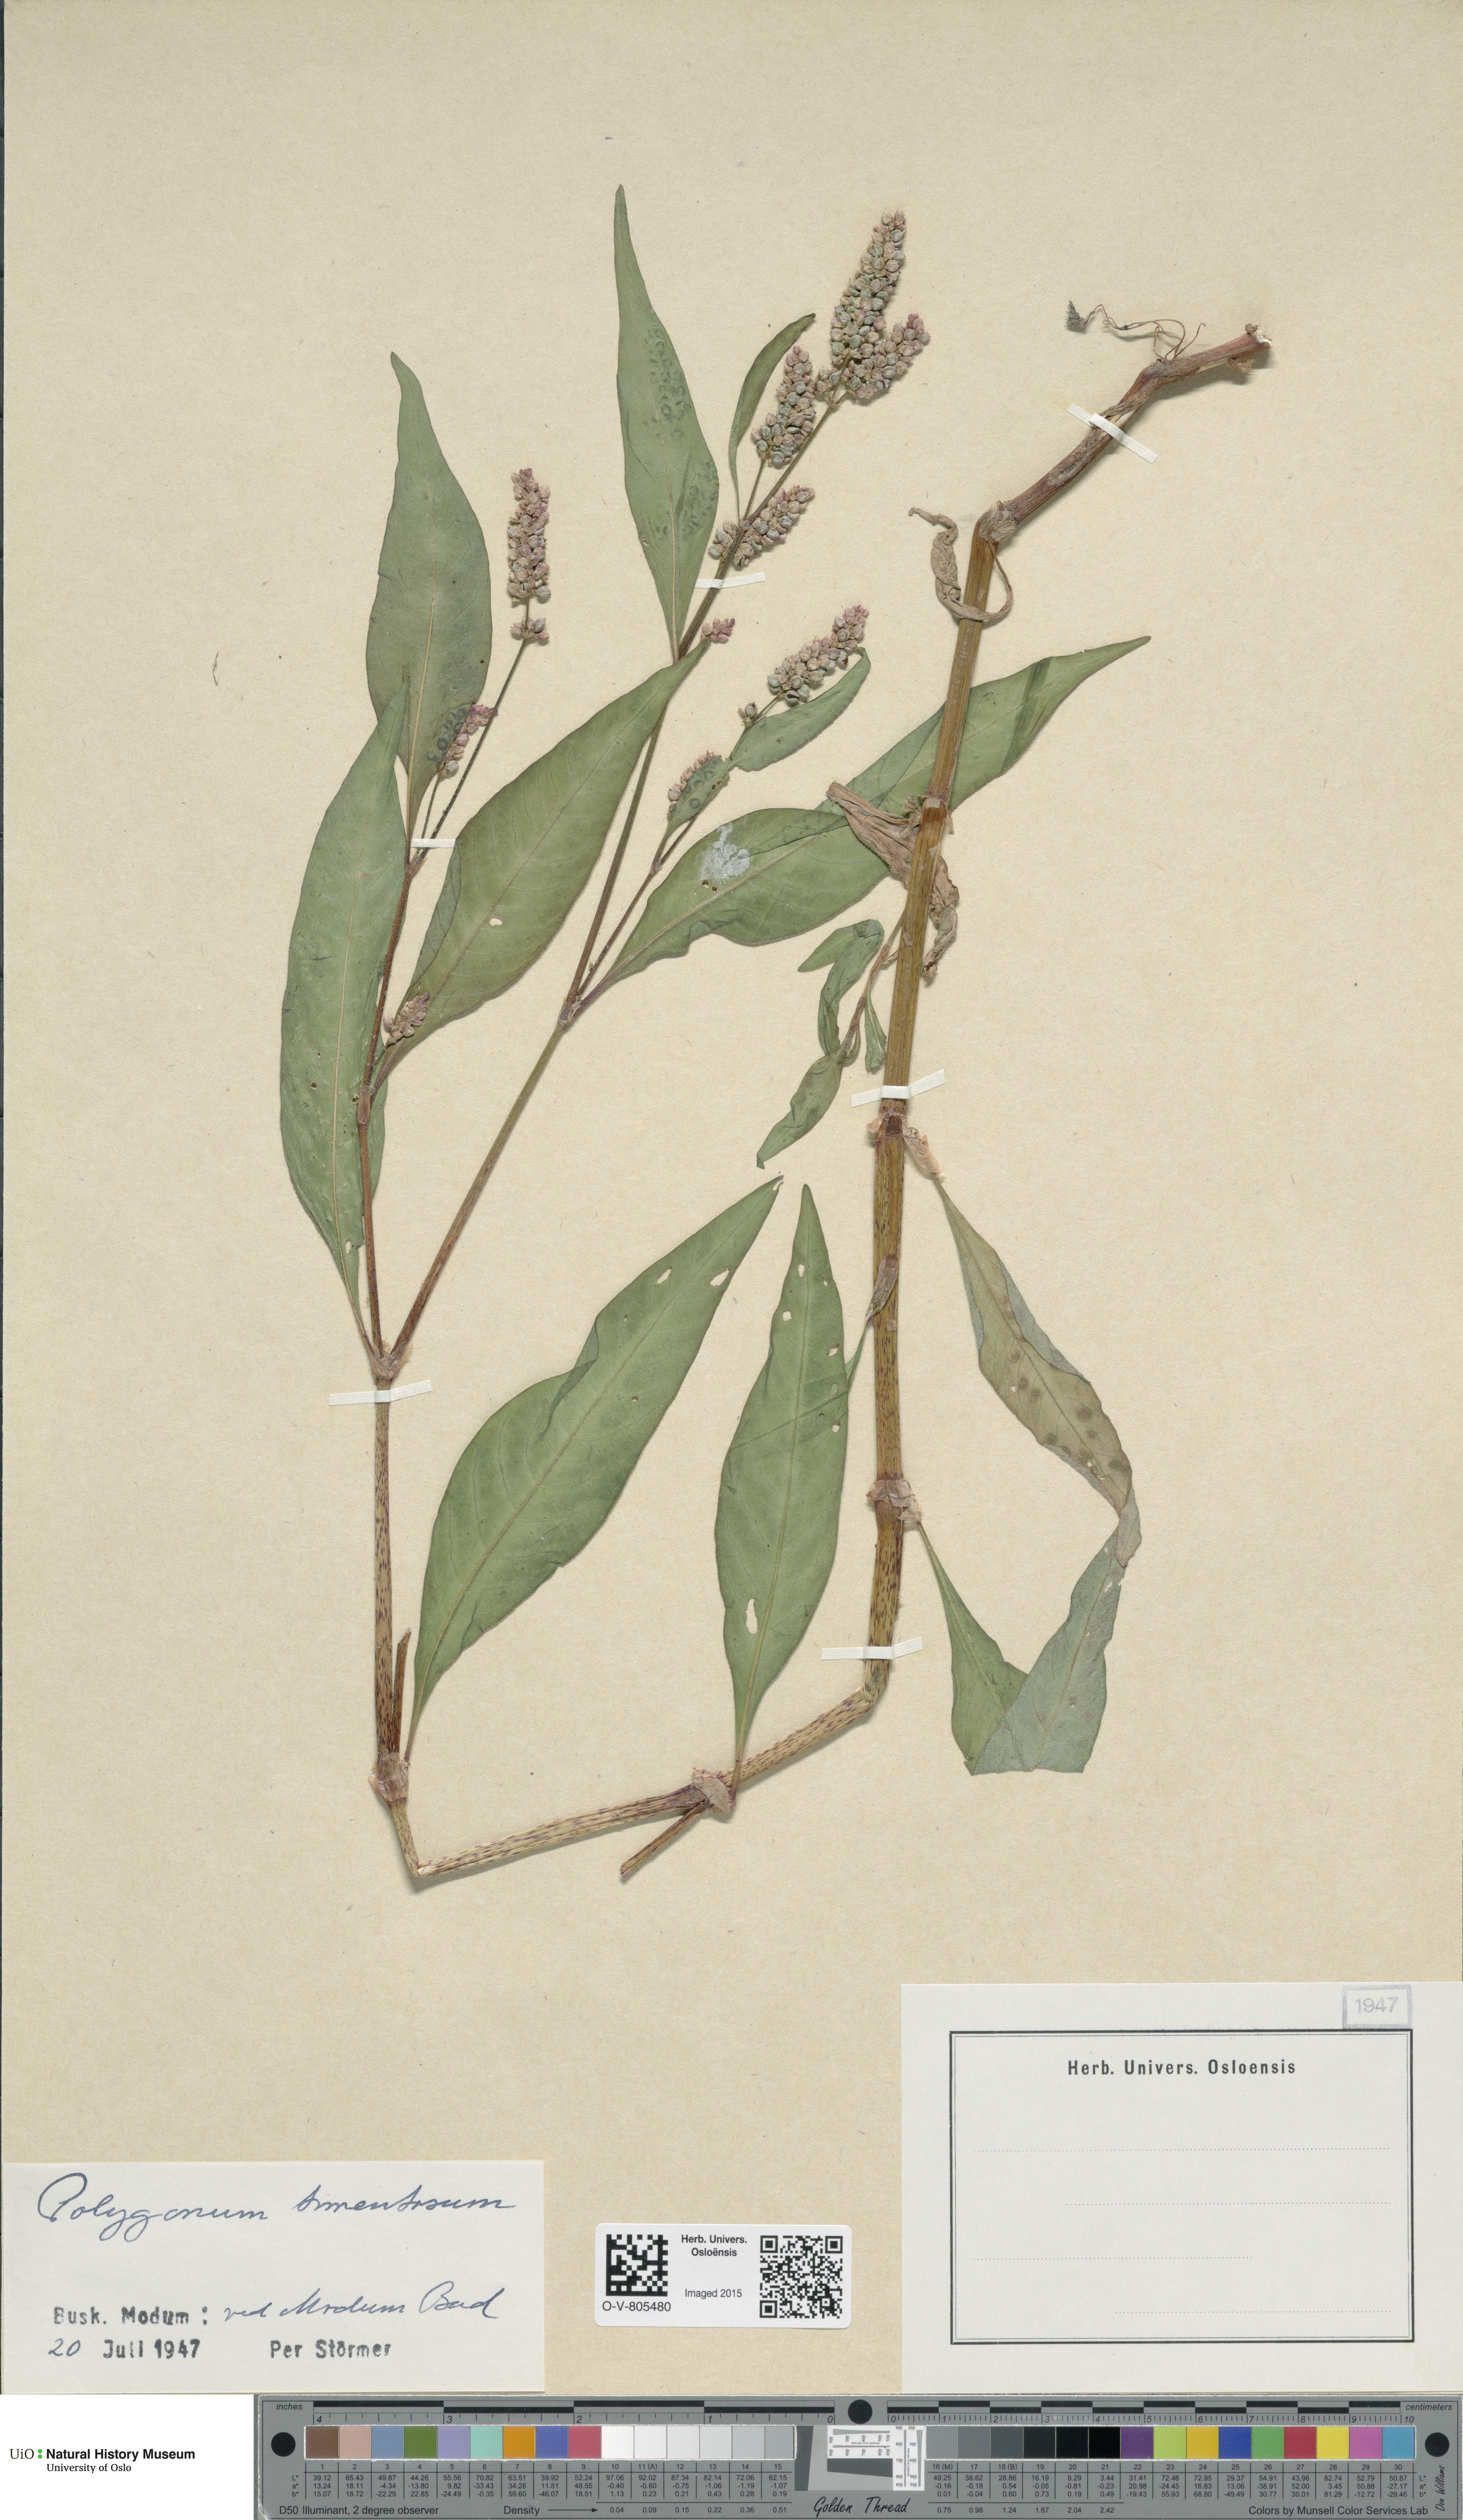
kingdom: Plantae
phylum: Tracheophyta
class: Magnoliopsida
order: Caryophyllales
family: Polygonaceae
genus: Persicaria
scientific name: Persicaria lapathifolia
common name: Curlytop knotweed
